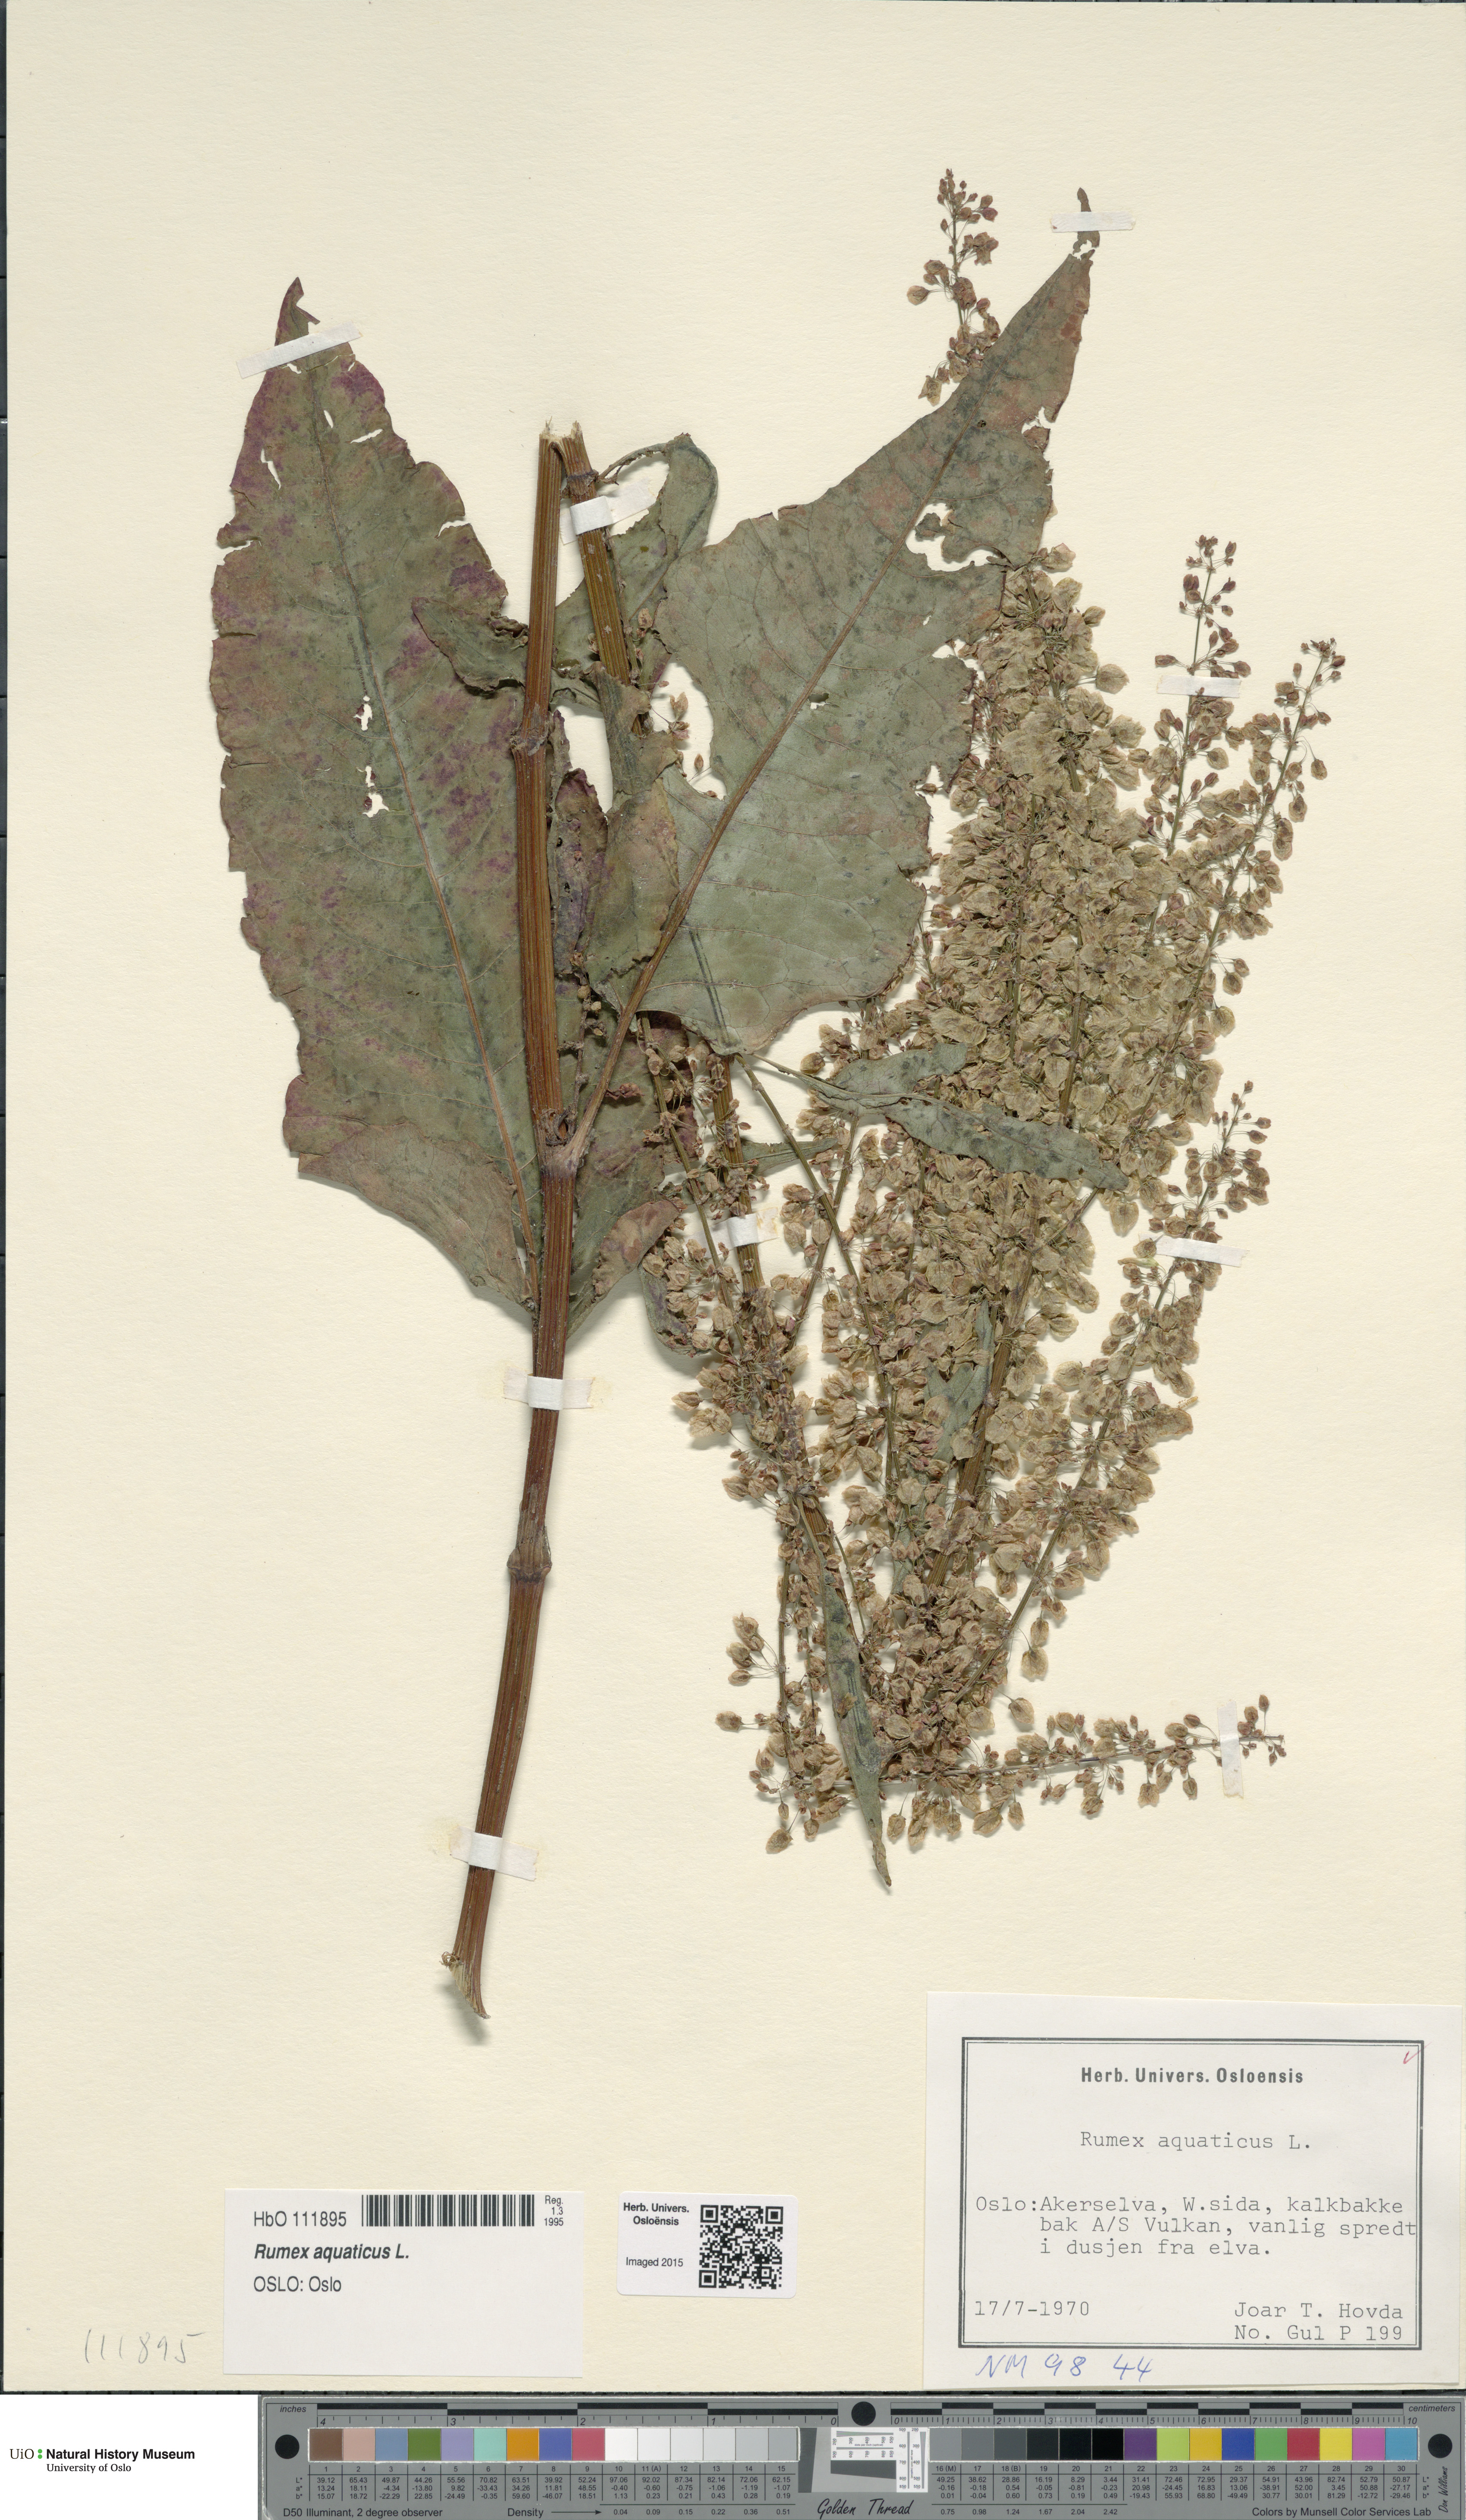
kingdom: Plantae
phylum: Tracheophyta
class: Magnoliopsida
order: Caryophyllales
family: Polygonaceae
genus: Rumex
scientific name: Rumex aquaticus
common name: Scottish dock
